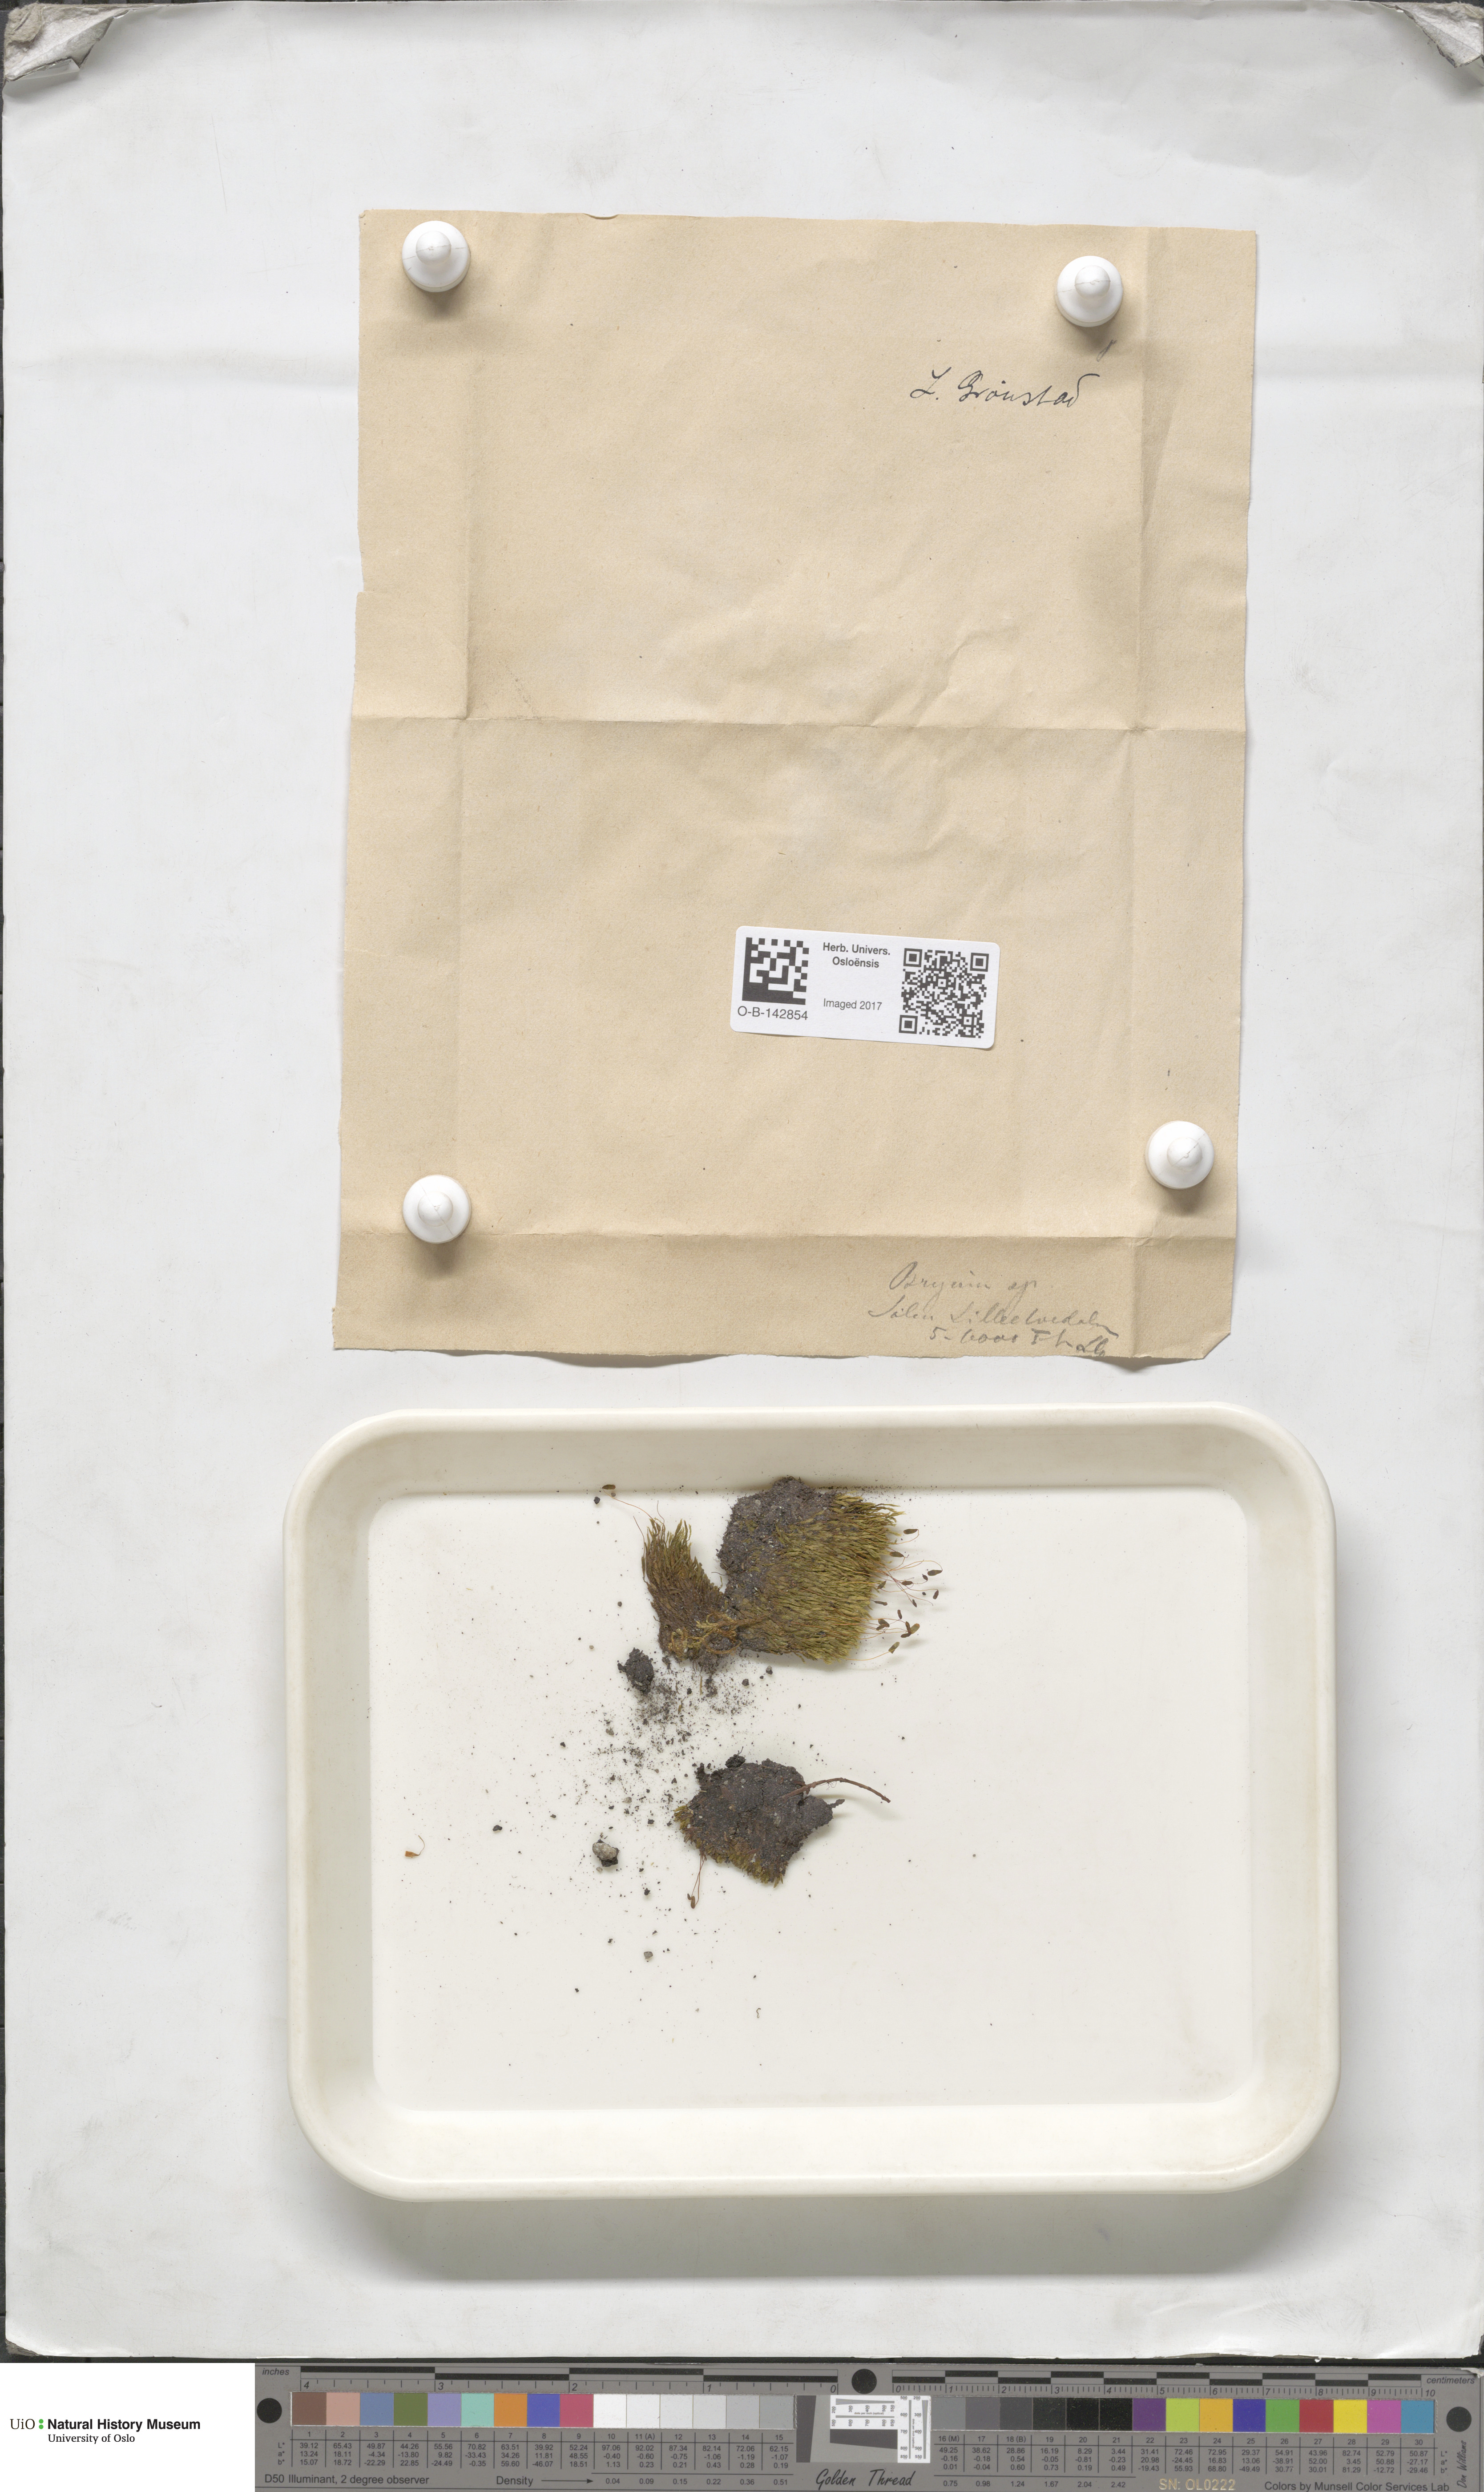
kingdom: Plantae
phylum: Bryophyta
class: Bryopsida
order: Bryales
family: Bryaceae
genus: Bryum
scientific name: Bryum
